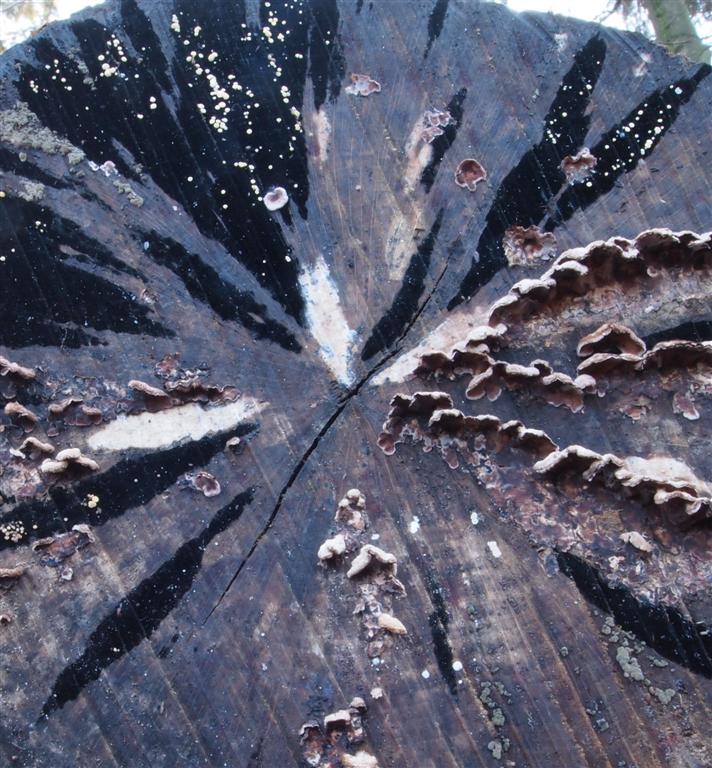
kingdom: Fungi
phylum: Ascomycota
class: Leotiomycetes
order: Helotiales
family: Helotiaceae
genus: Bispora
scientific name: Bispora pallescens
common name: måtte-snitskive
